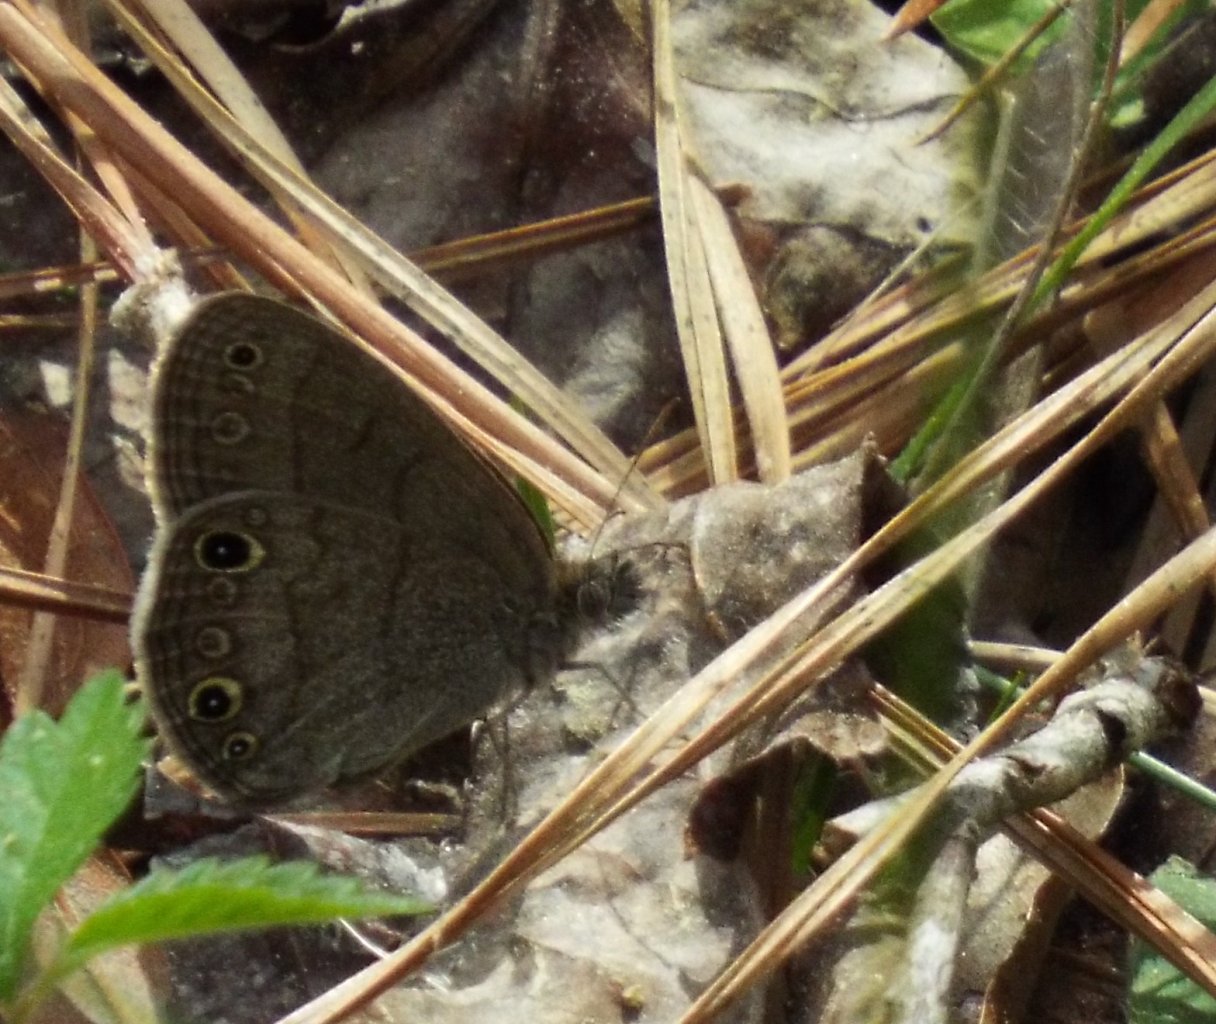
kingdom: Animalia
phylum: Arthropoda
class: Insecta
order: Lepidoptera
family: Nymphalidae
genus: Hermeuptychia
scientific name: Hermeuptychia hermes
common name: Carolina Satyr
